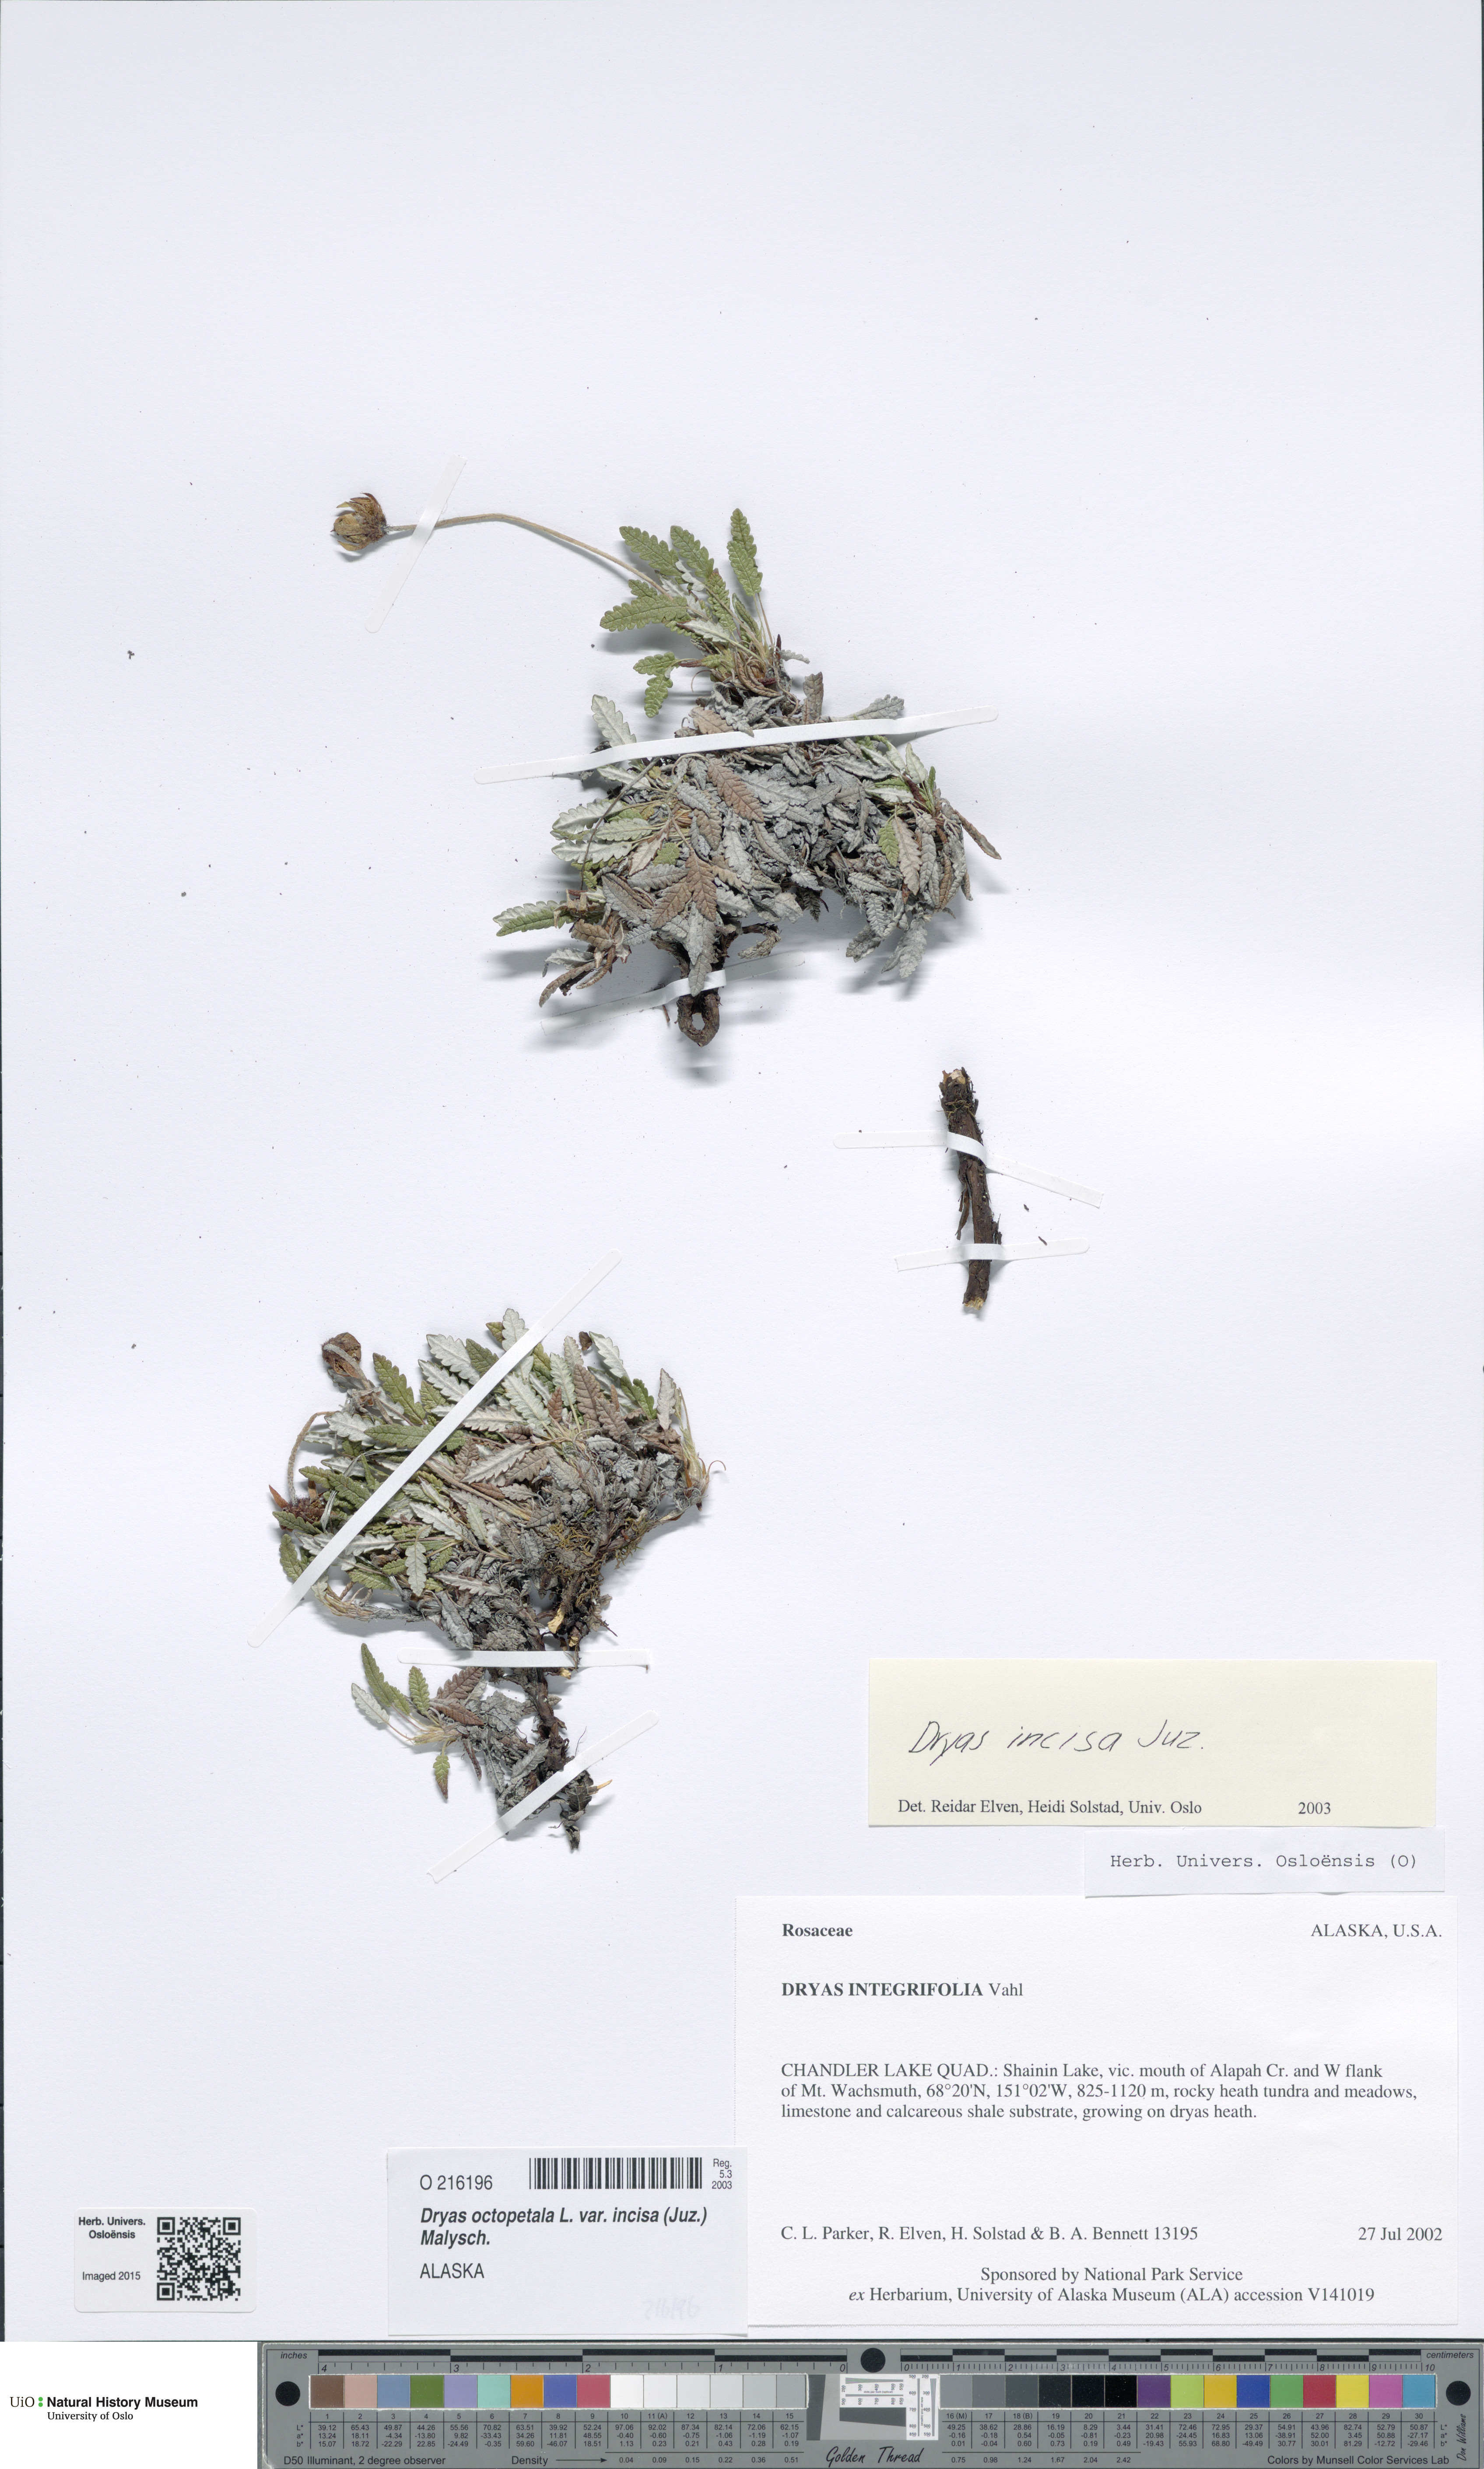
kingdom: Plantae
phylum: Tracheophyta
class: Magnoliopsida
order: Rosales
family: Rosaceae
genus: Dryas
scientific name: Dryas octopetala
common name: Eight-petal mountain-avens
